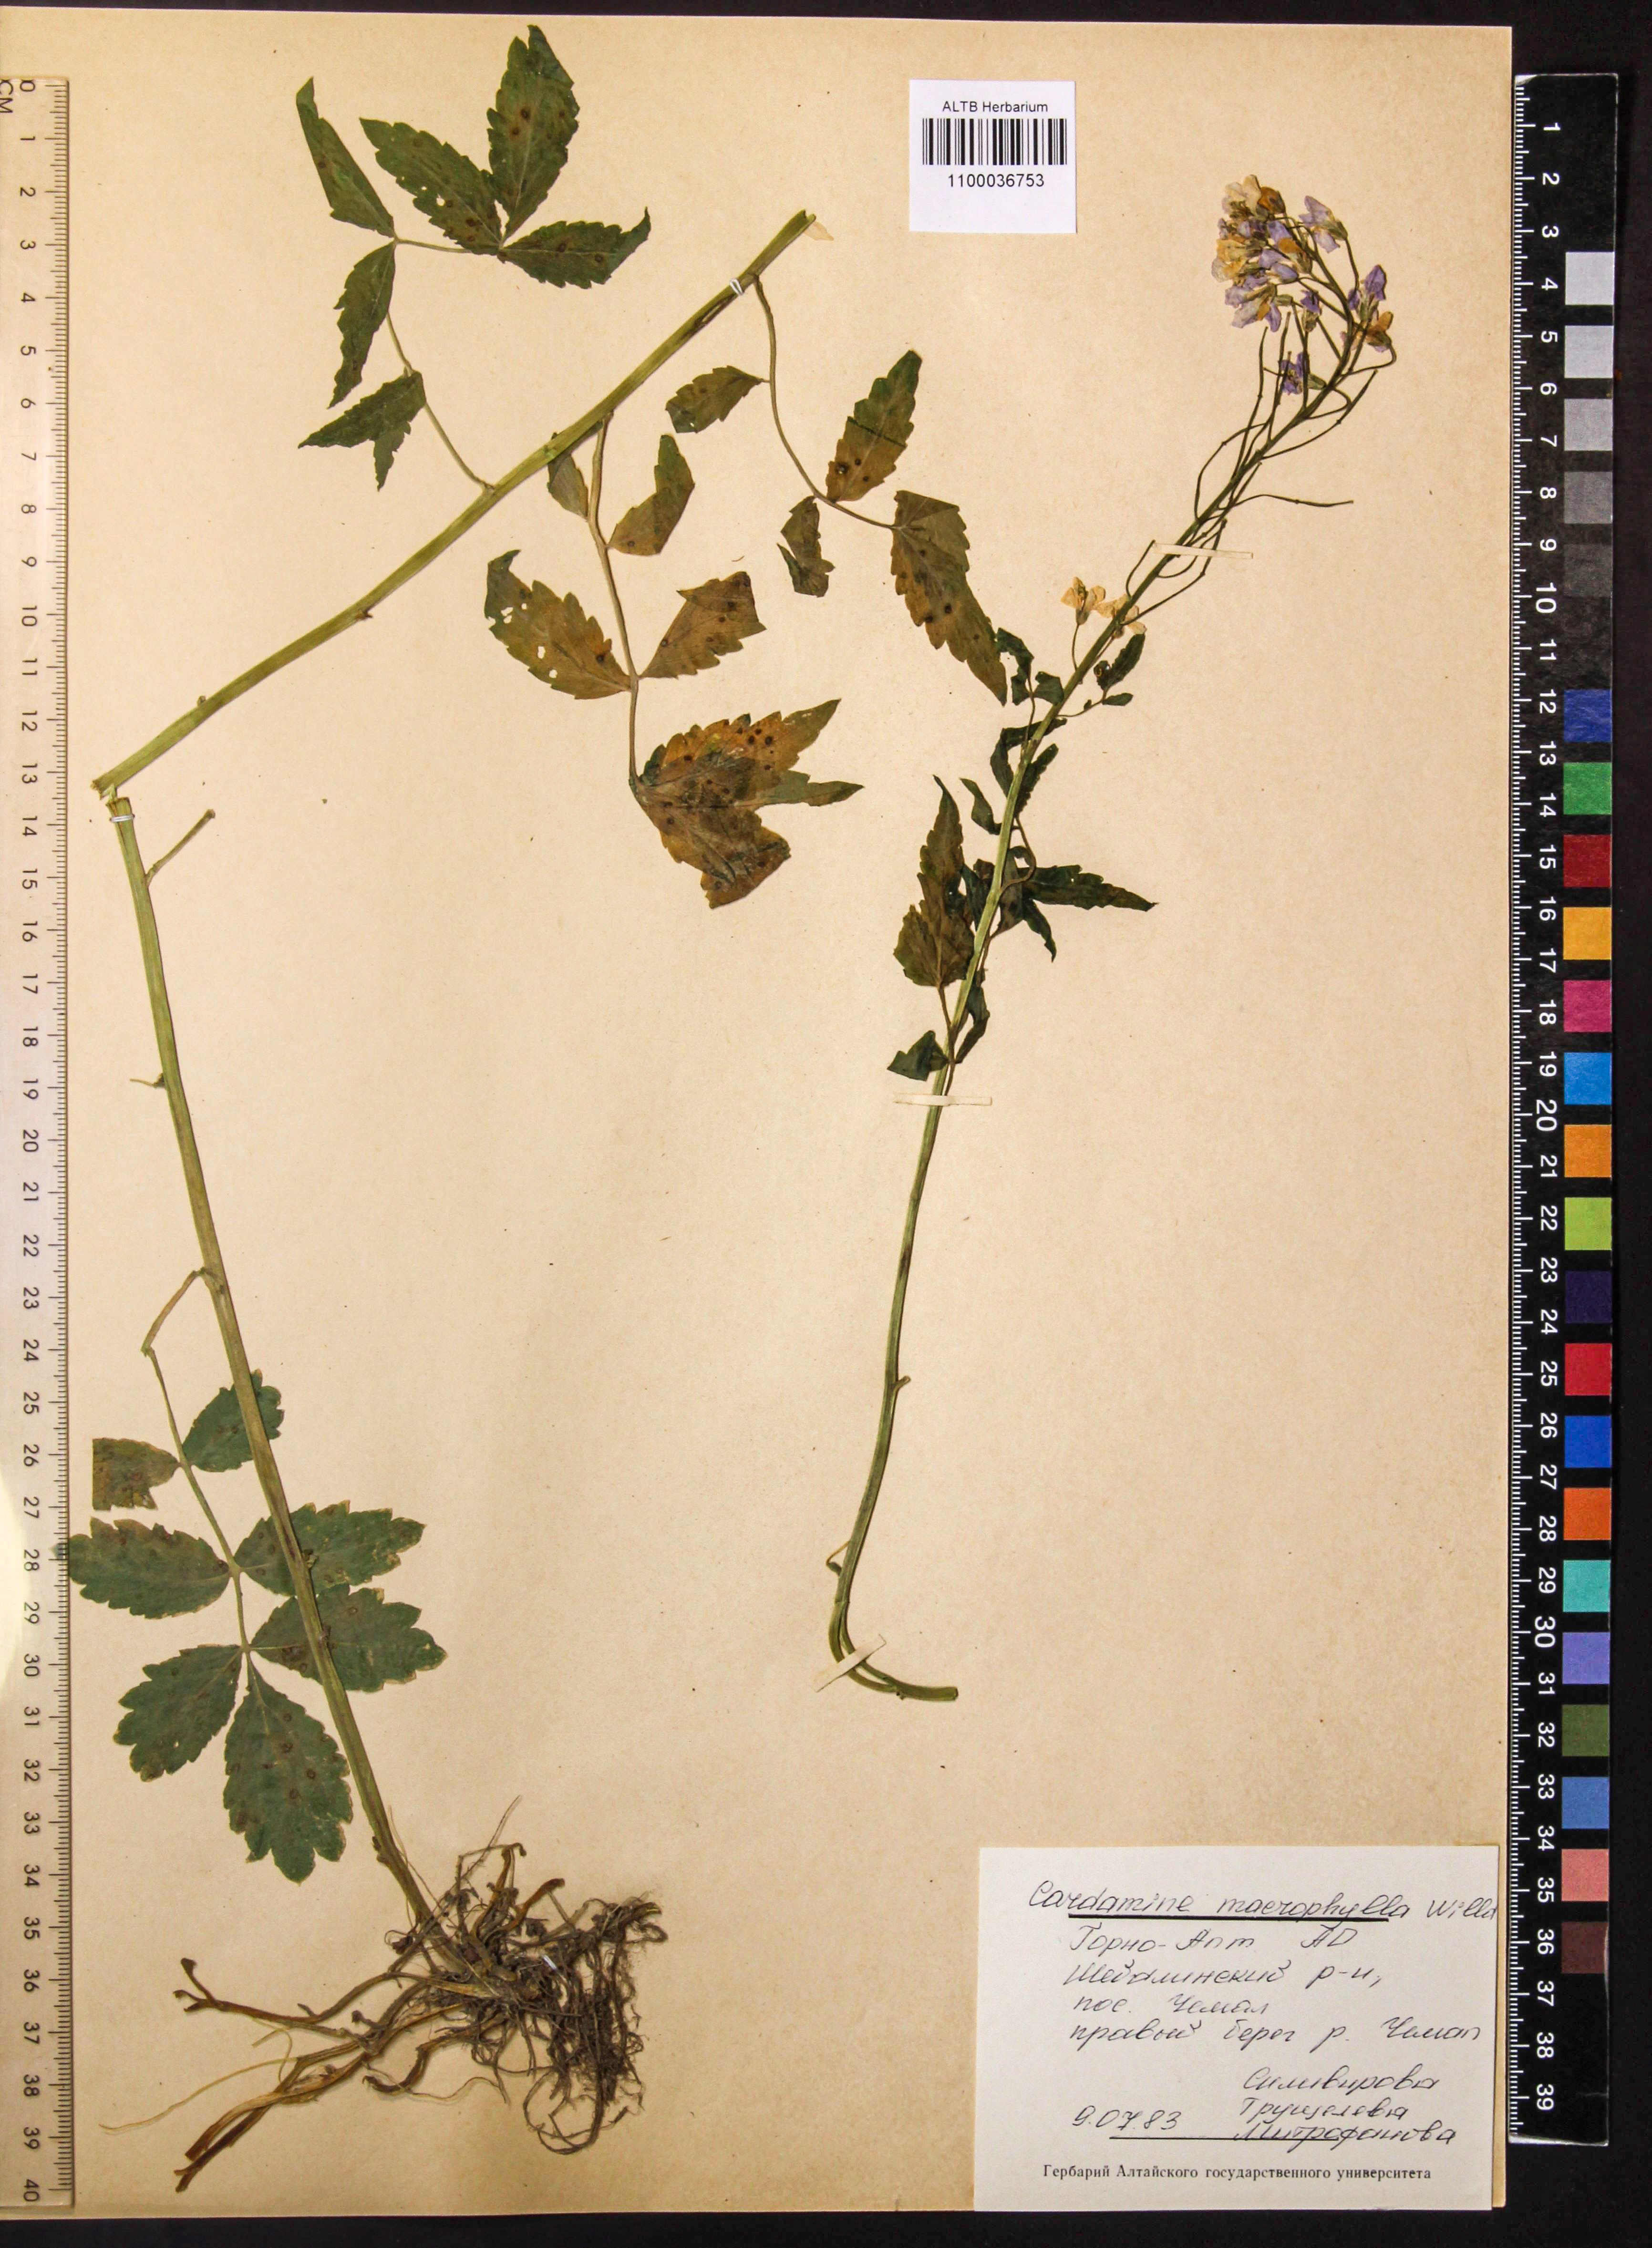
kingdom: Plantae
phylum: Tracheophyta
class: Magnoliopsida
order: Brassicales
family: Brassicaceae
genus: Cardamine
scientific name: Cardamine macrophylla
